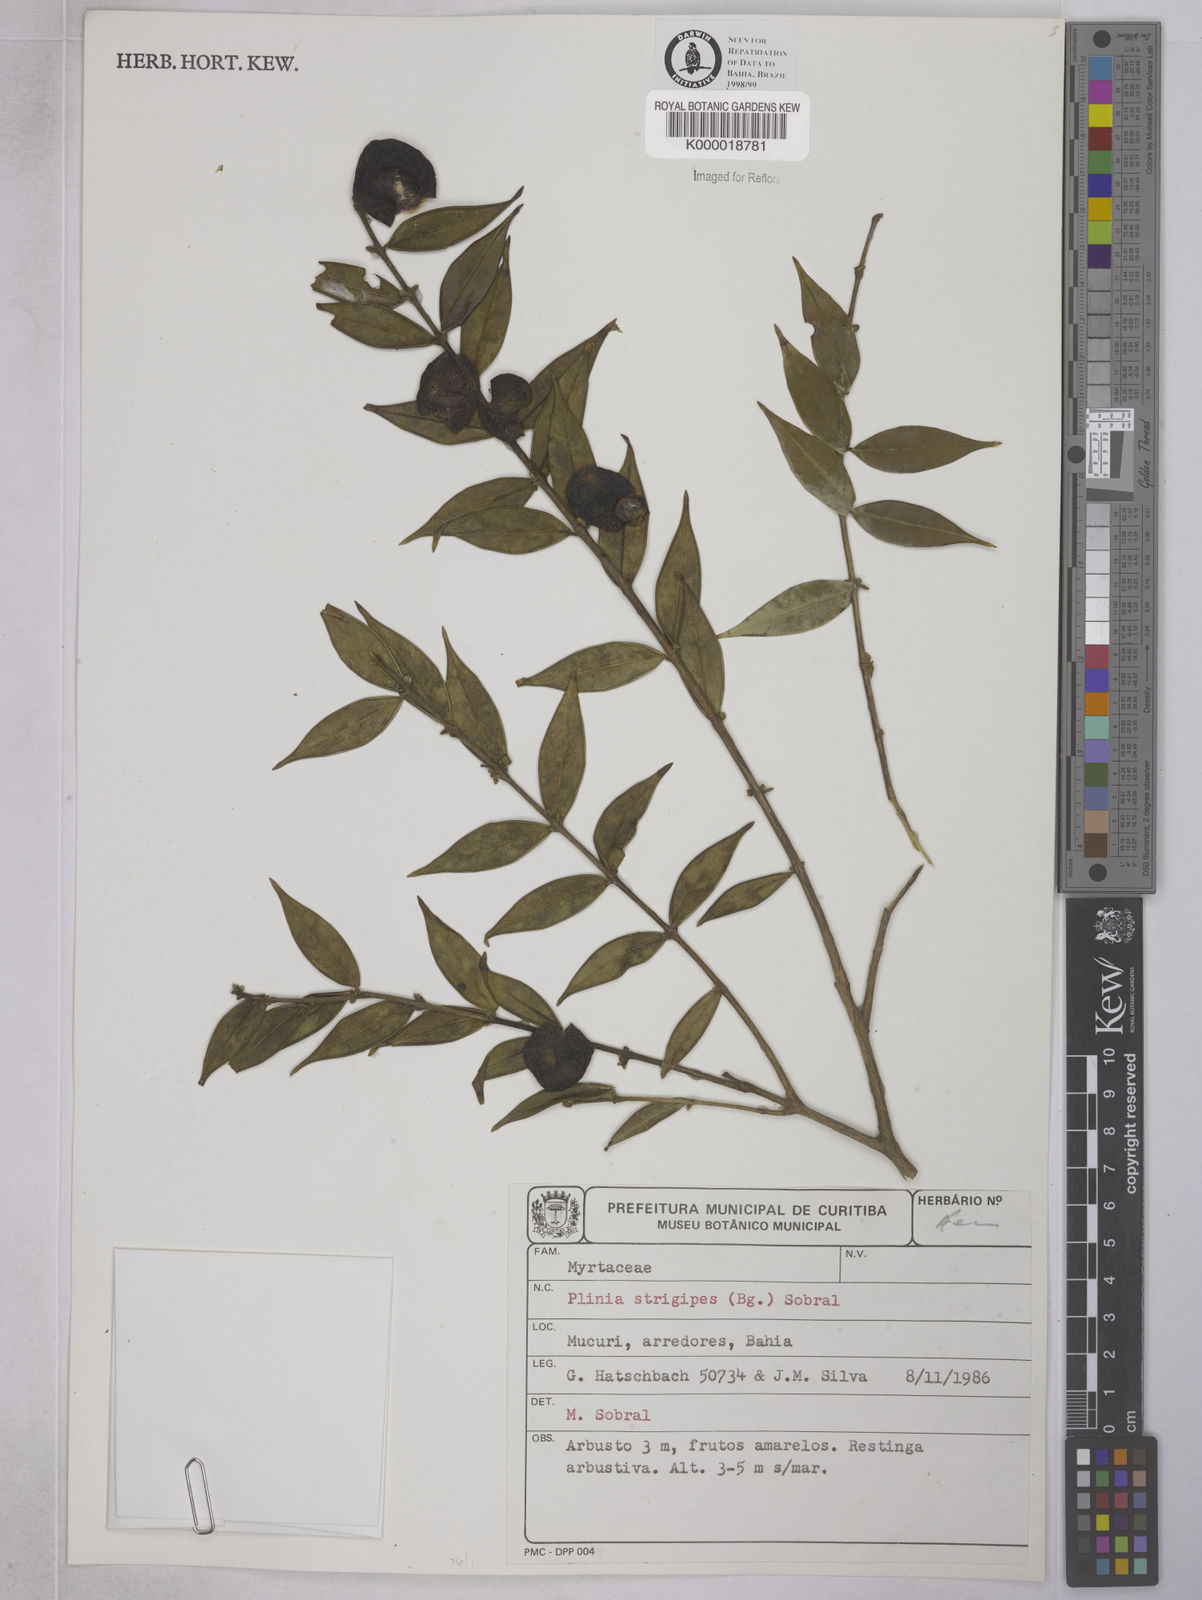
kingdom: Plantae
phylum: Tracheophyta
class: Magnoliopsida
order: Myrtales
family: Myrtaceae
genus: Myrciaria
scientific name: Myrciaria strigipes
